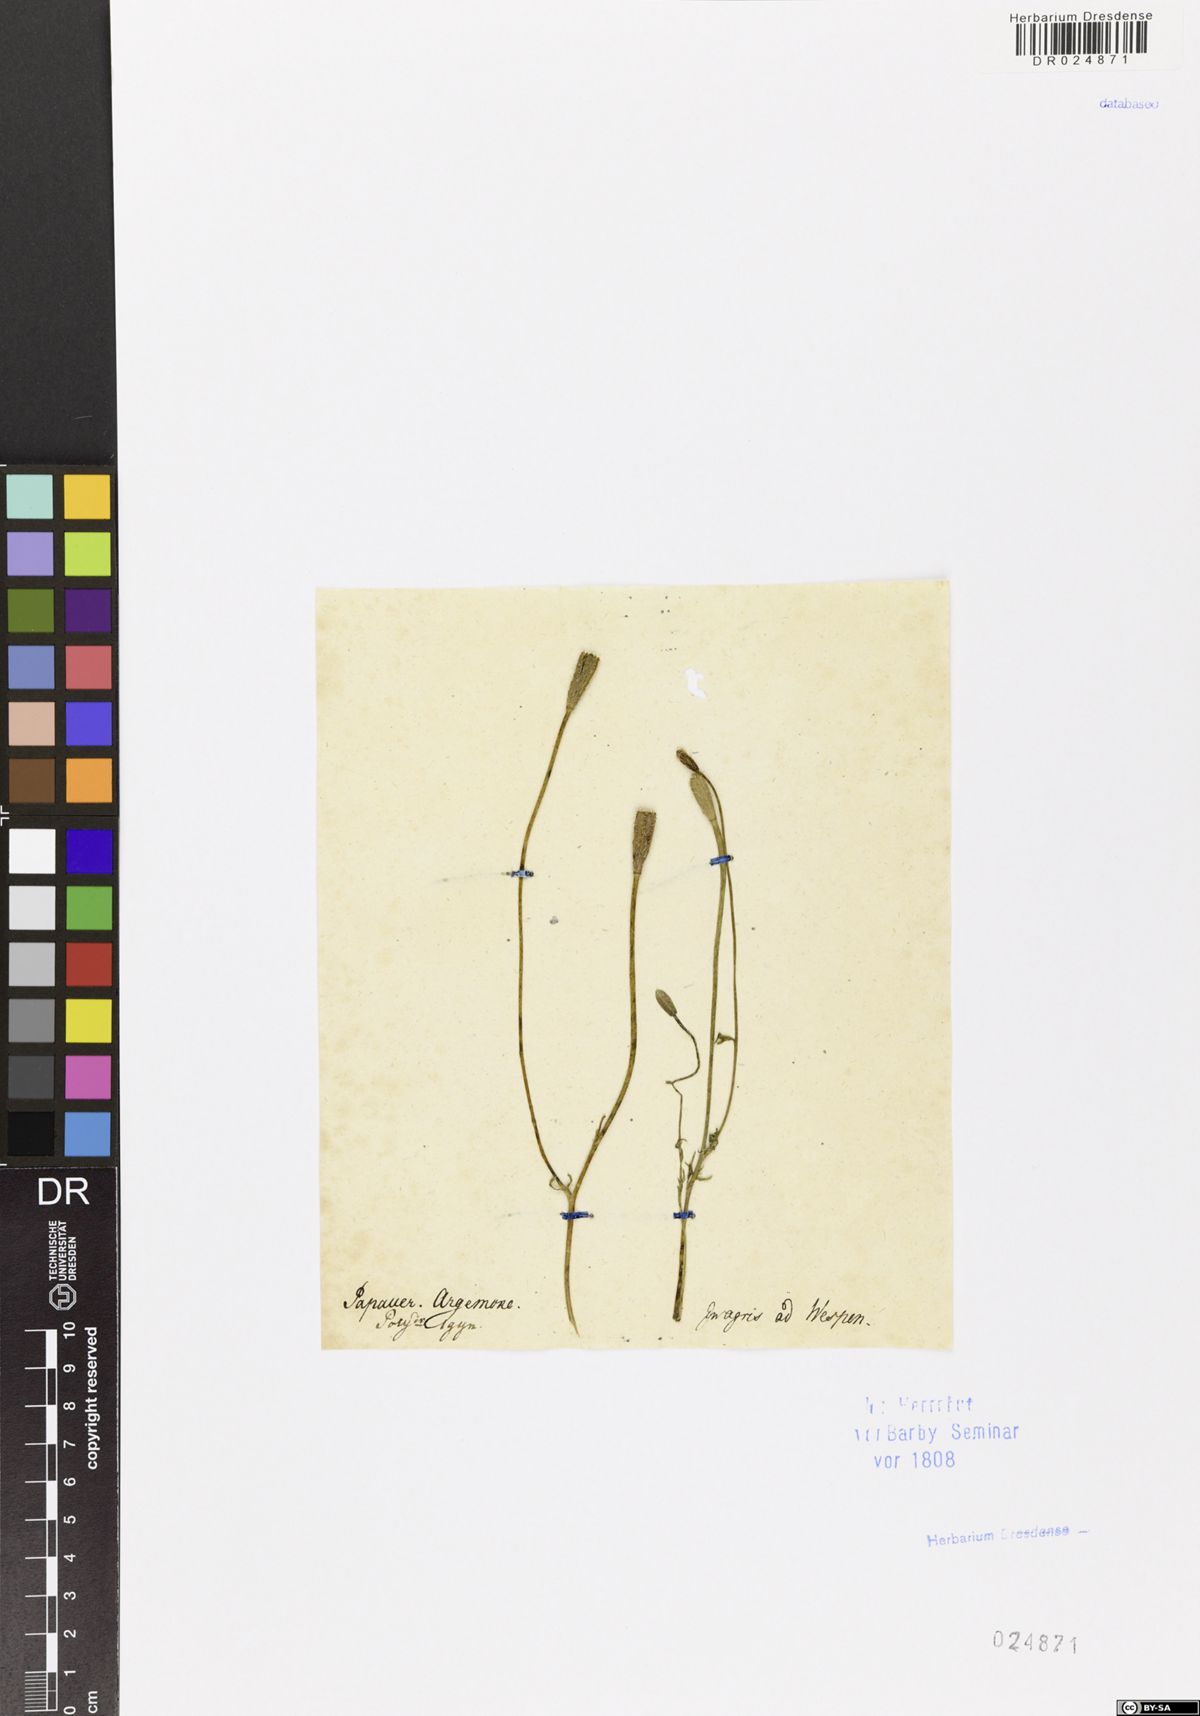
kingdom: Plantae
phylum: Tracheophyta
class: Magnoliopsida
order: Ranunculales
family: Papaveraceae
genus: Roemeria
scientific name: Roemeria argemone
